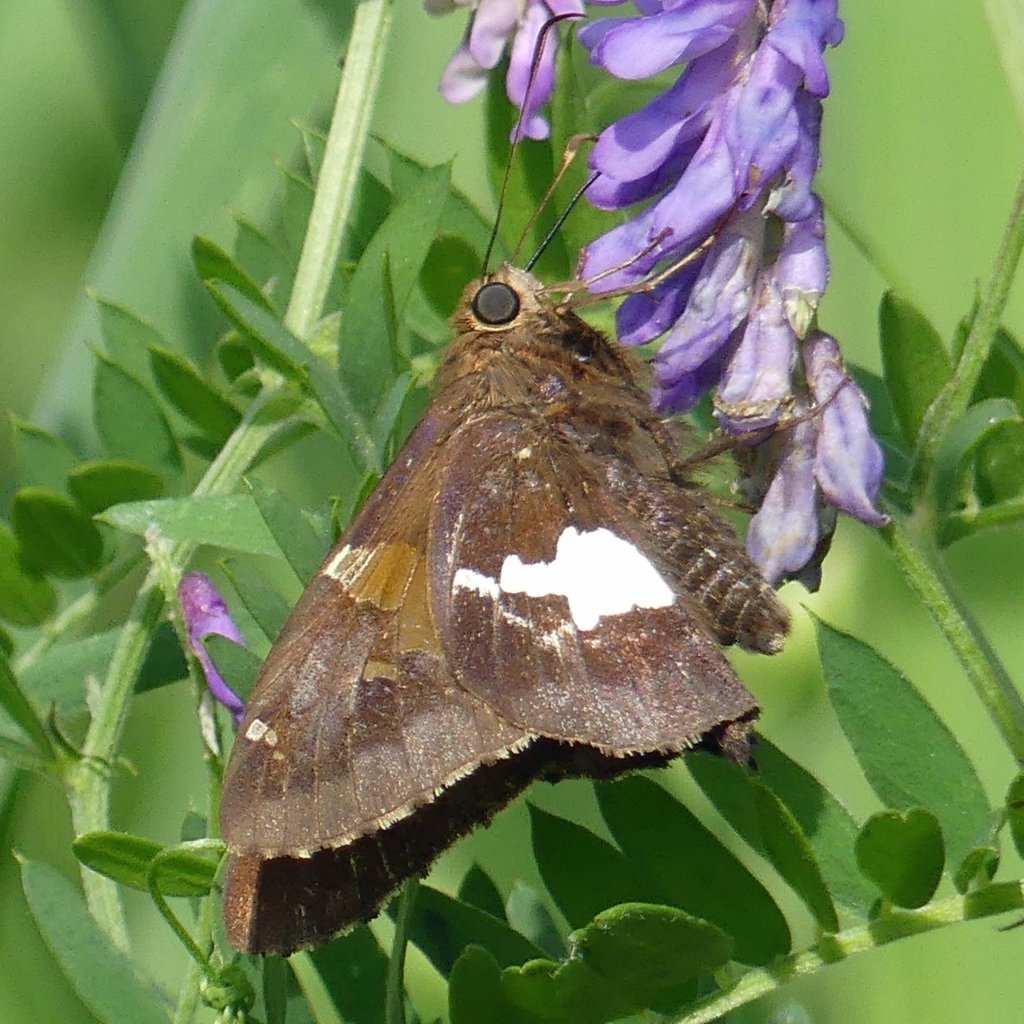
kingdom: Animalia
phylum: Arthropoda
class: Insecta
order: Lepidoptera
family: Hesperiidae
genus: Epargyreus
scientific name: Epargyreus clarus
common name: Silver-spotted Skipper
